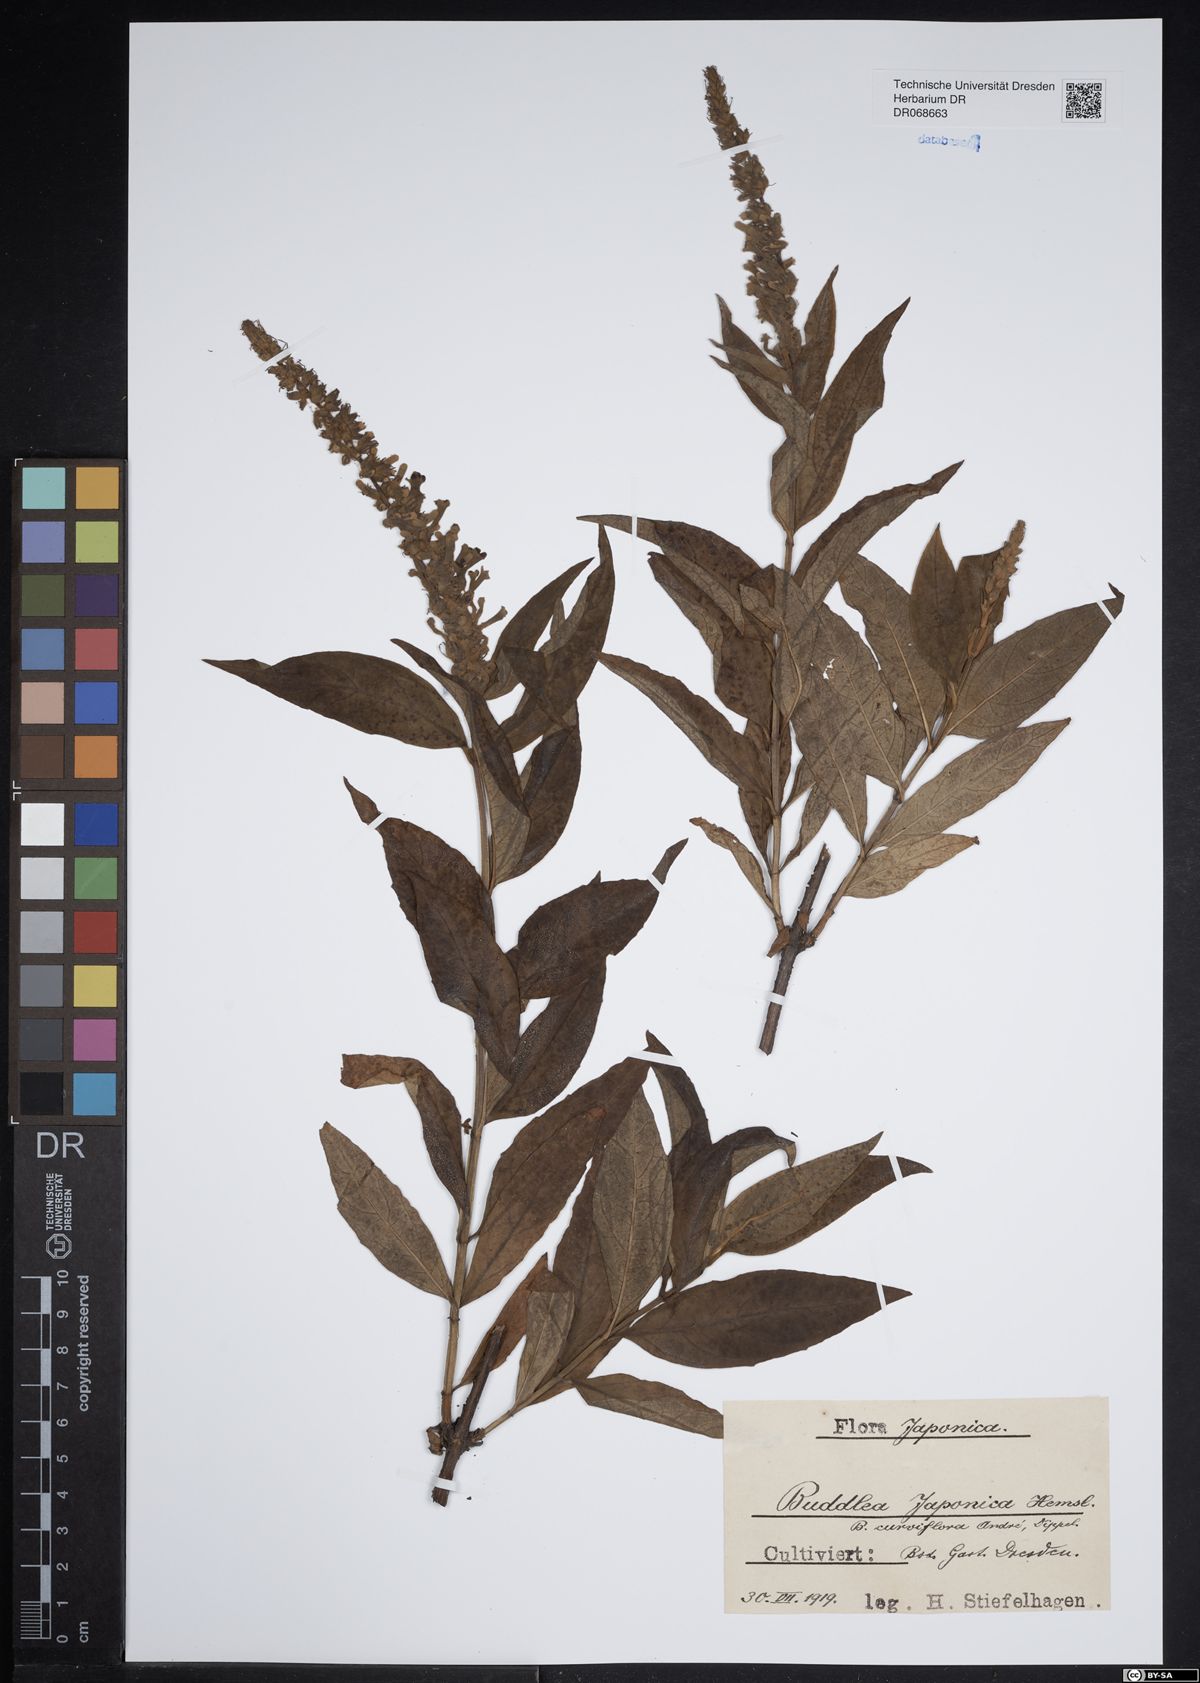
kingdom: Plantae
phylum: Tracheophyta
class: Magnoliopsida
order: Lamiales
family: Scrophulariaceae
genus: Buddleja
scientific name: Buddleja japonica
